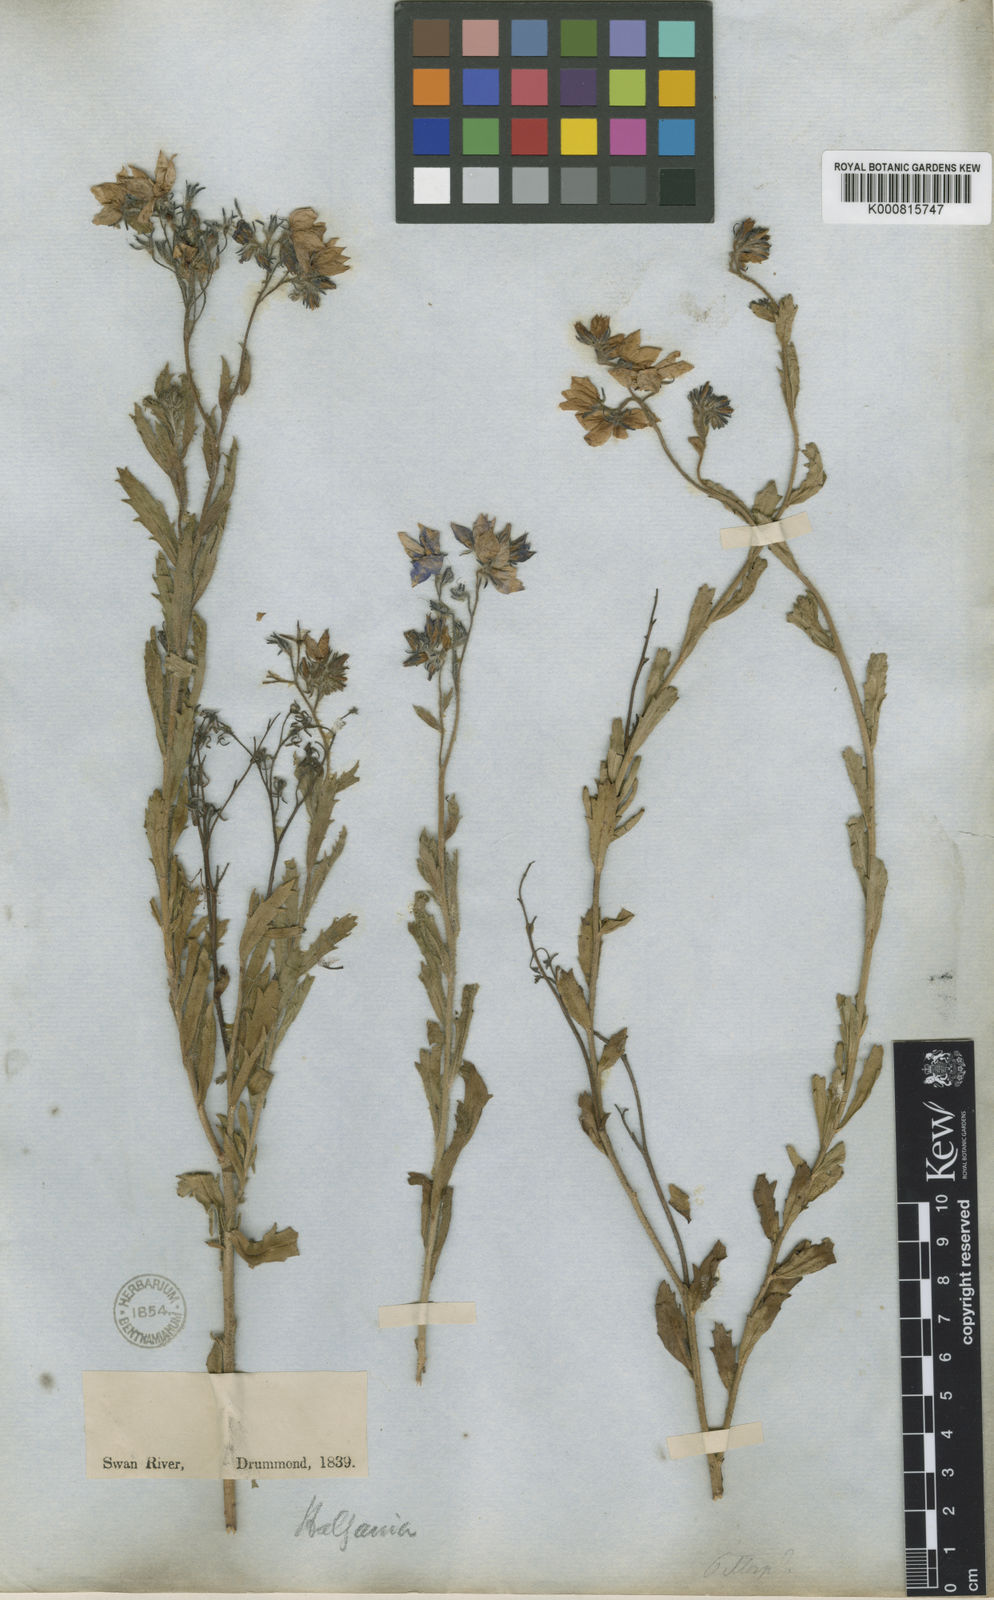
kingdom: Plantae
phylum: Tracheophyta
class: Magnoliopsida
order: Boraginales
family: Ehretiaceae
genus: Halgania
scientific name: Halgania corymbosa
